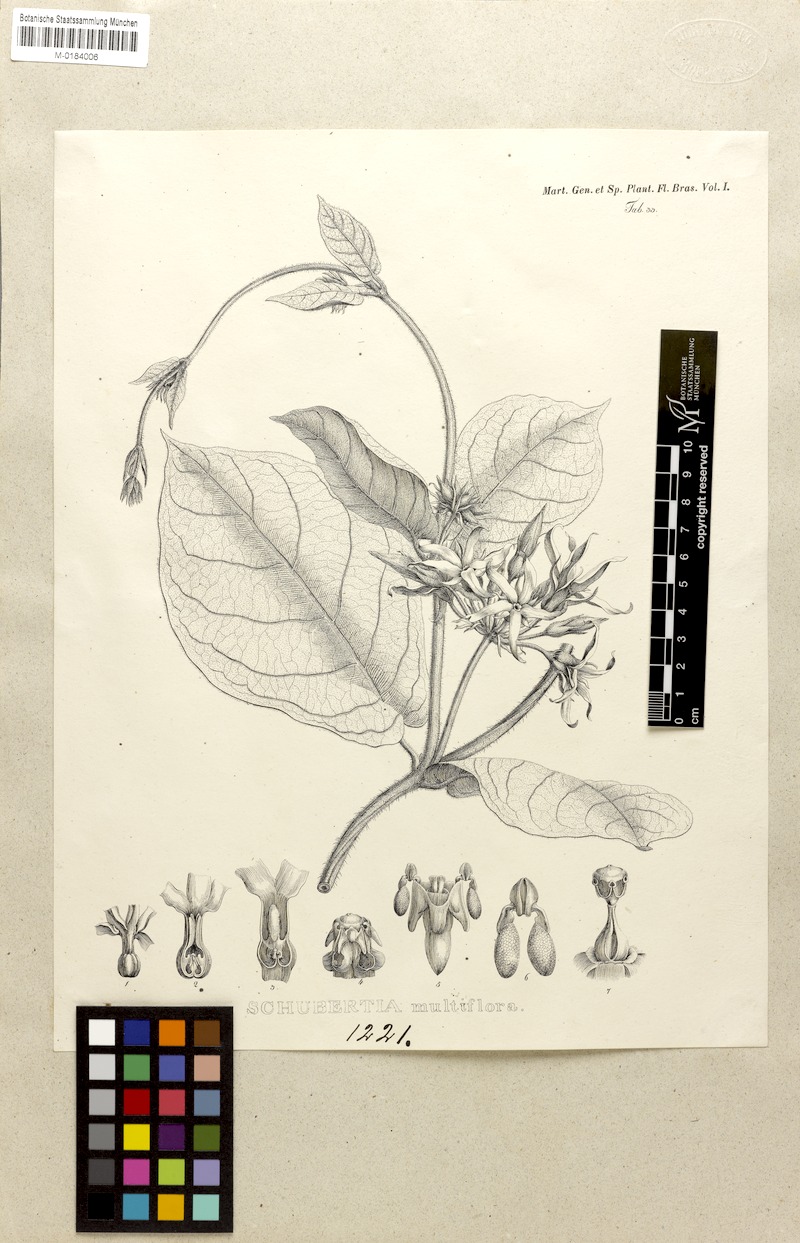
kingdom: Plantae
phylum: Tracheophyta
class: Magnoliopsida
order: Gentianales
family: Apocynaceae
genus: Schubertia
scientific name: Schubertia multiflora
